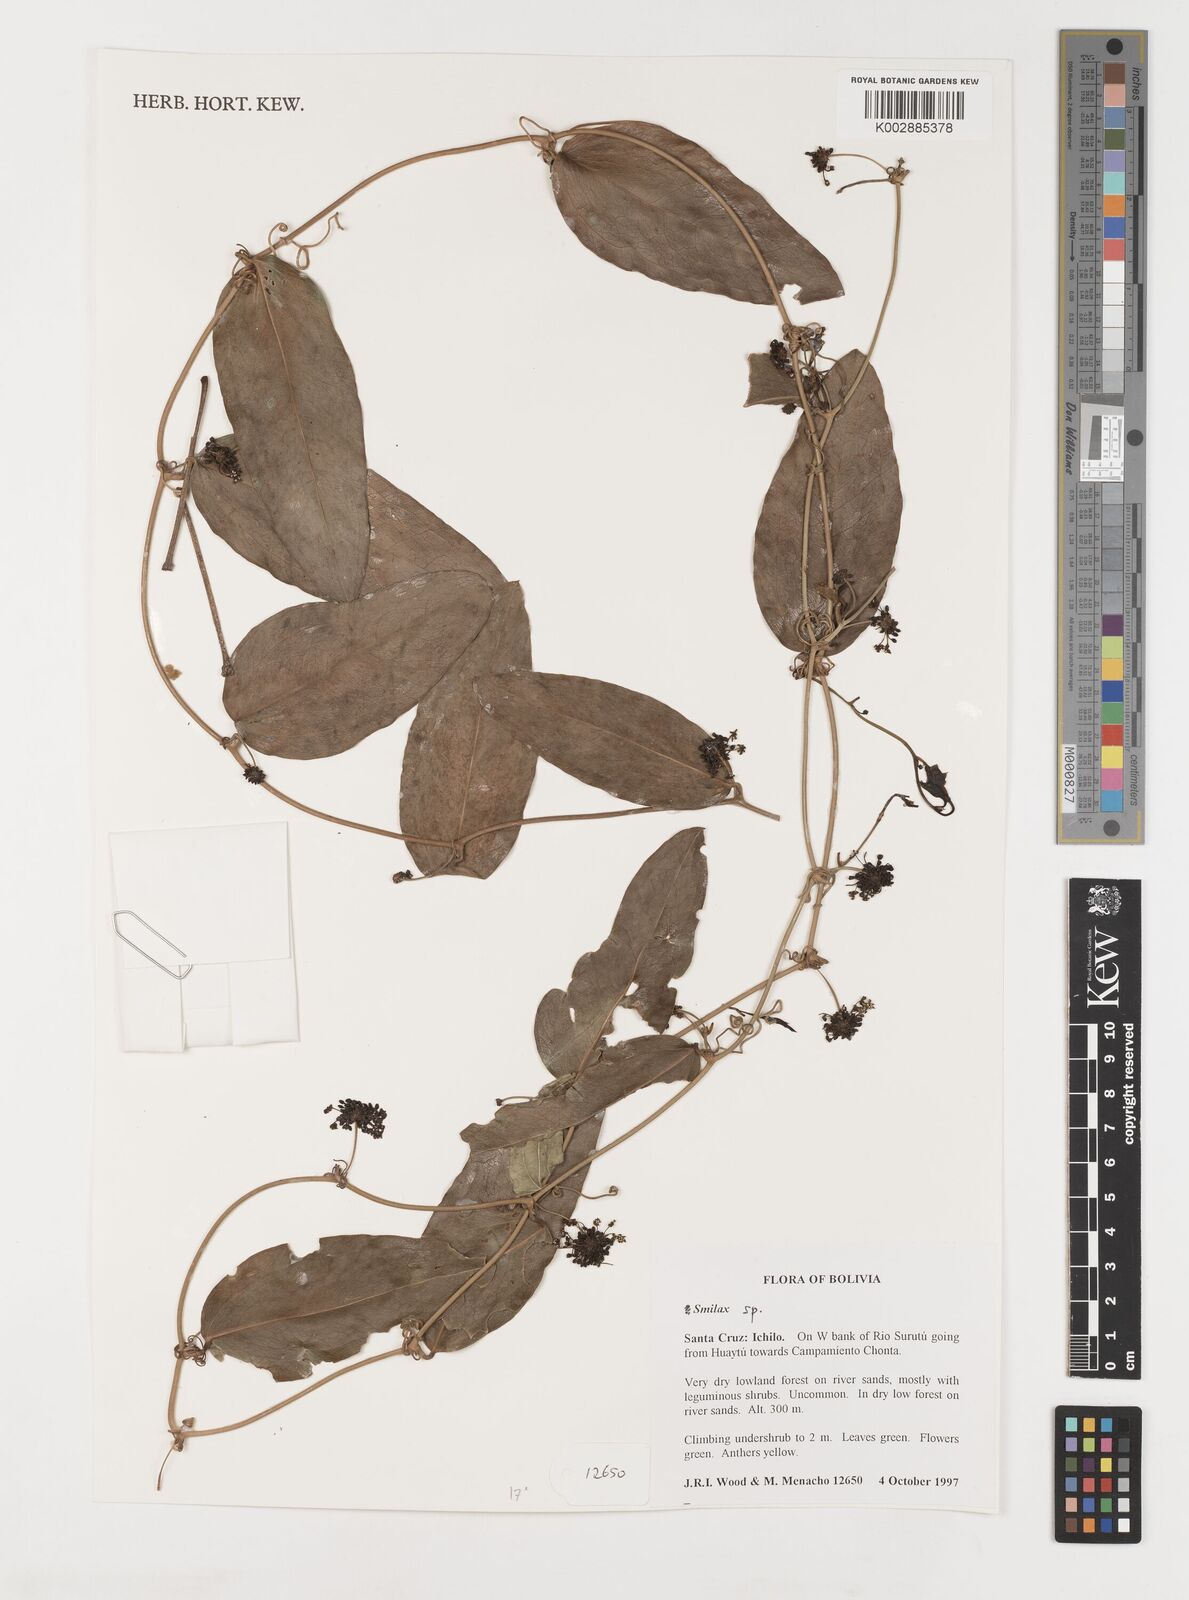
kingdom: Plantae
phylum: Tracheophyta
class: Liliopsida
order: Liliales
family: Smilacaceae
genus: Smilax
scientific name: Smilax
